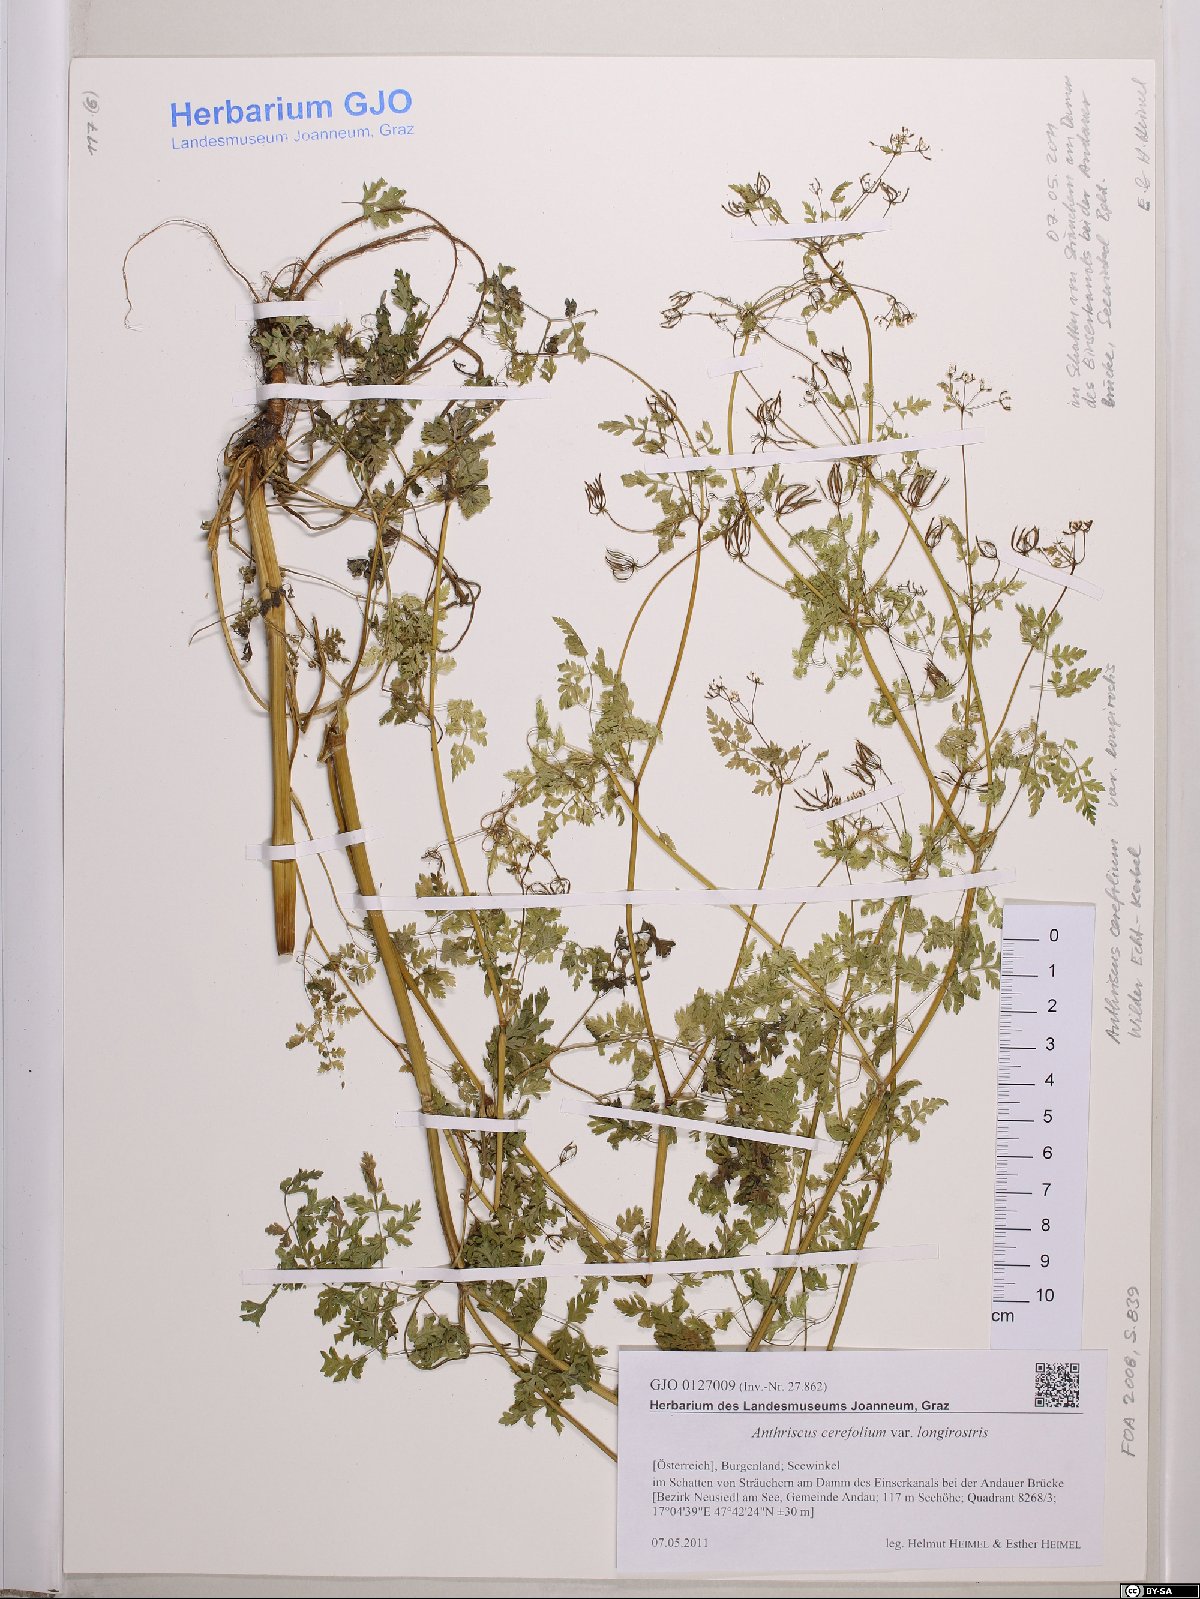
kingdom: Plantae
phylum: Tracheophyta
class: Magnoliopsida
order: Apiales
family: Apiaceae
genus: Anthriscus
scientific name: Anthriscus cerefolium
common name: Garden chervil
